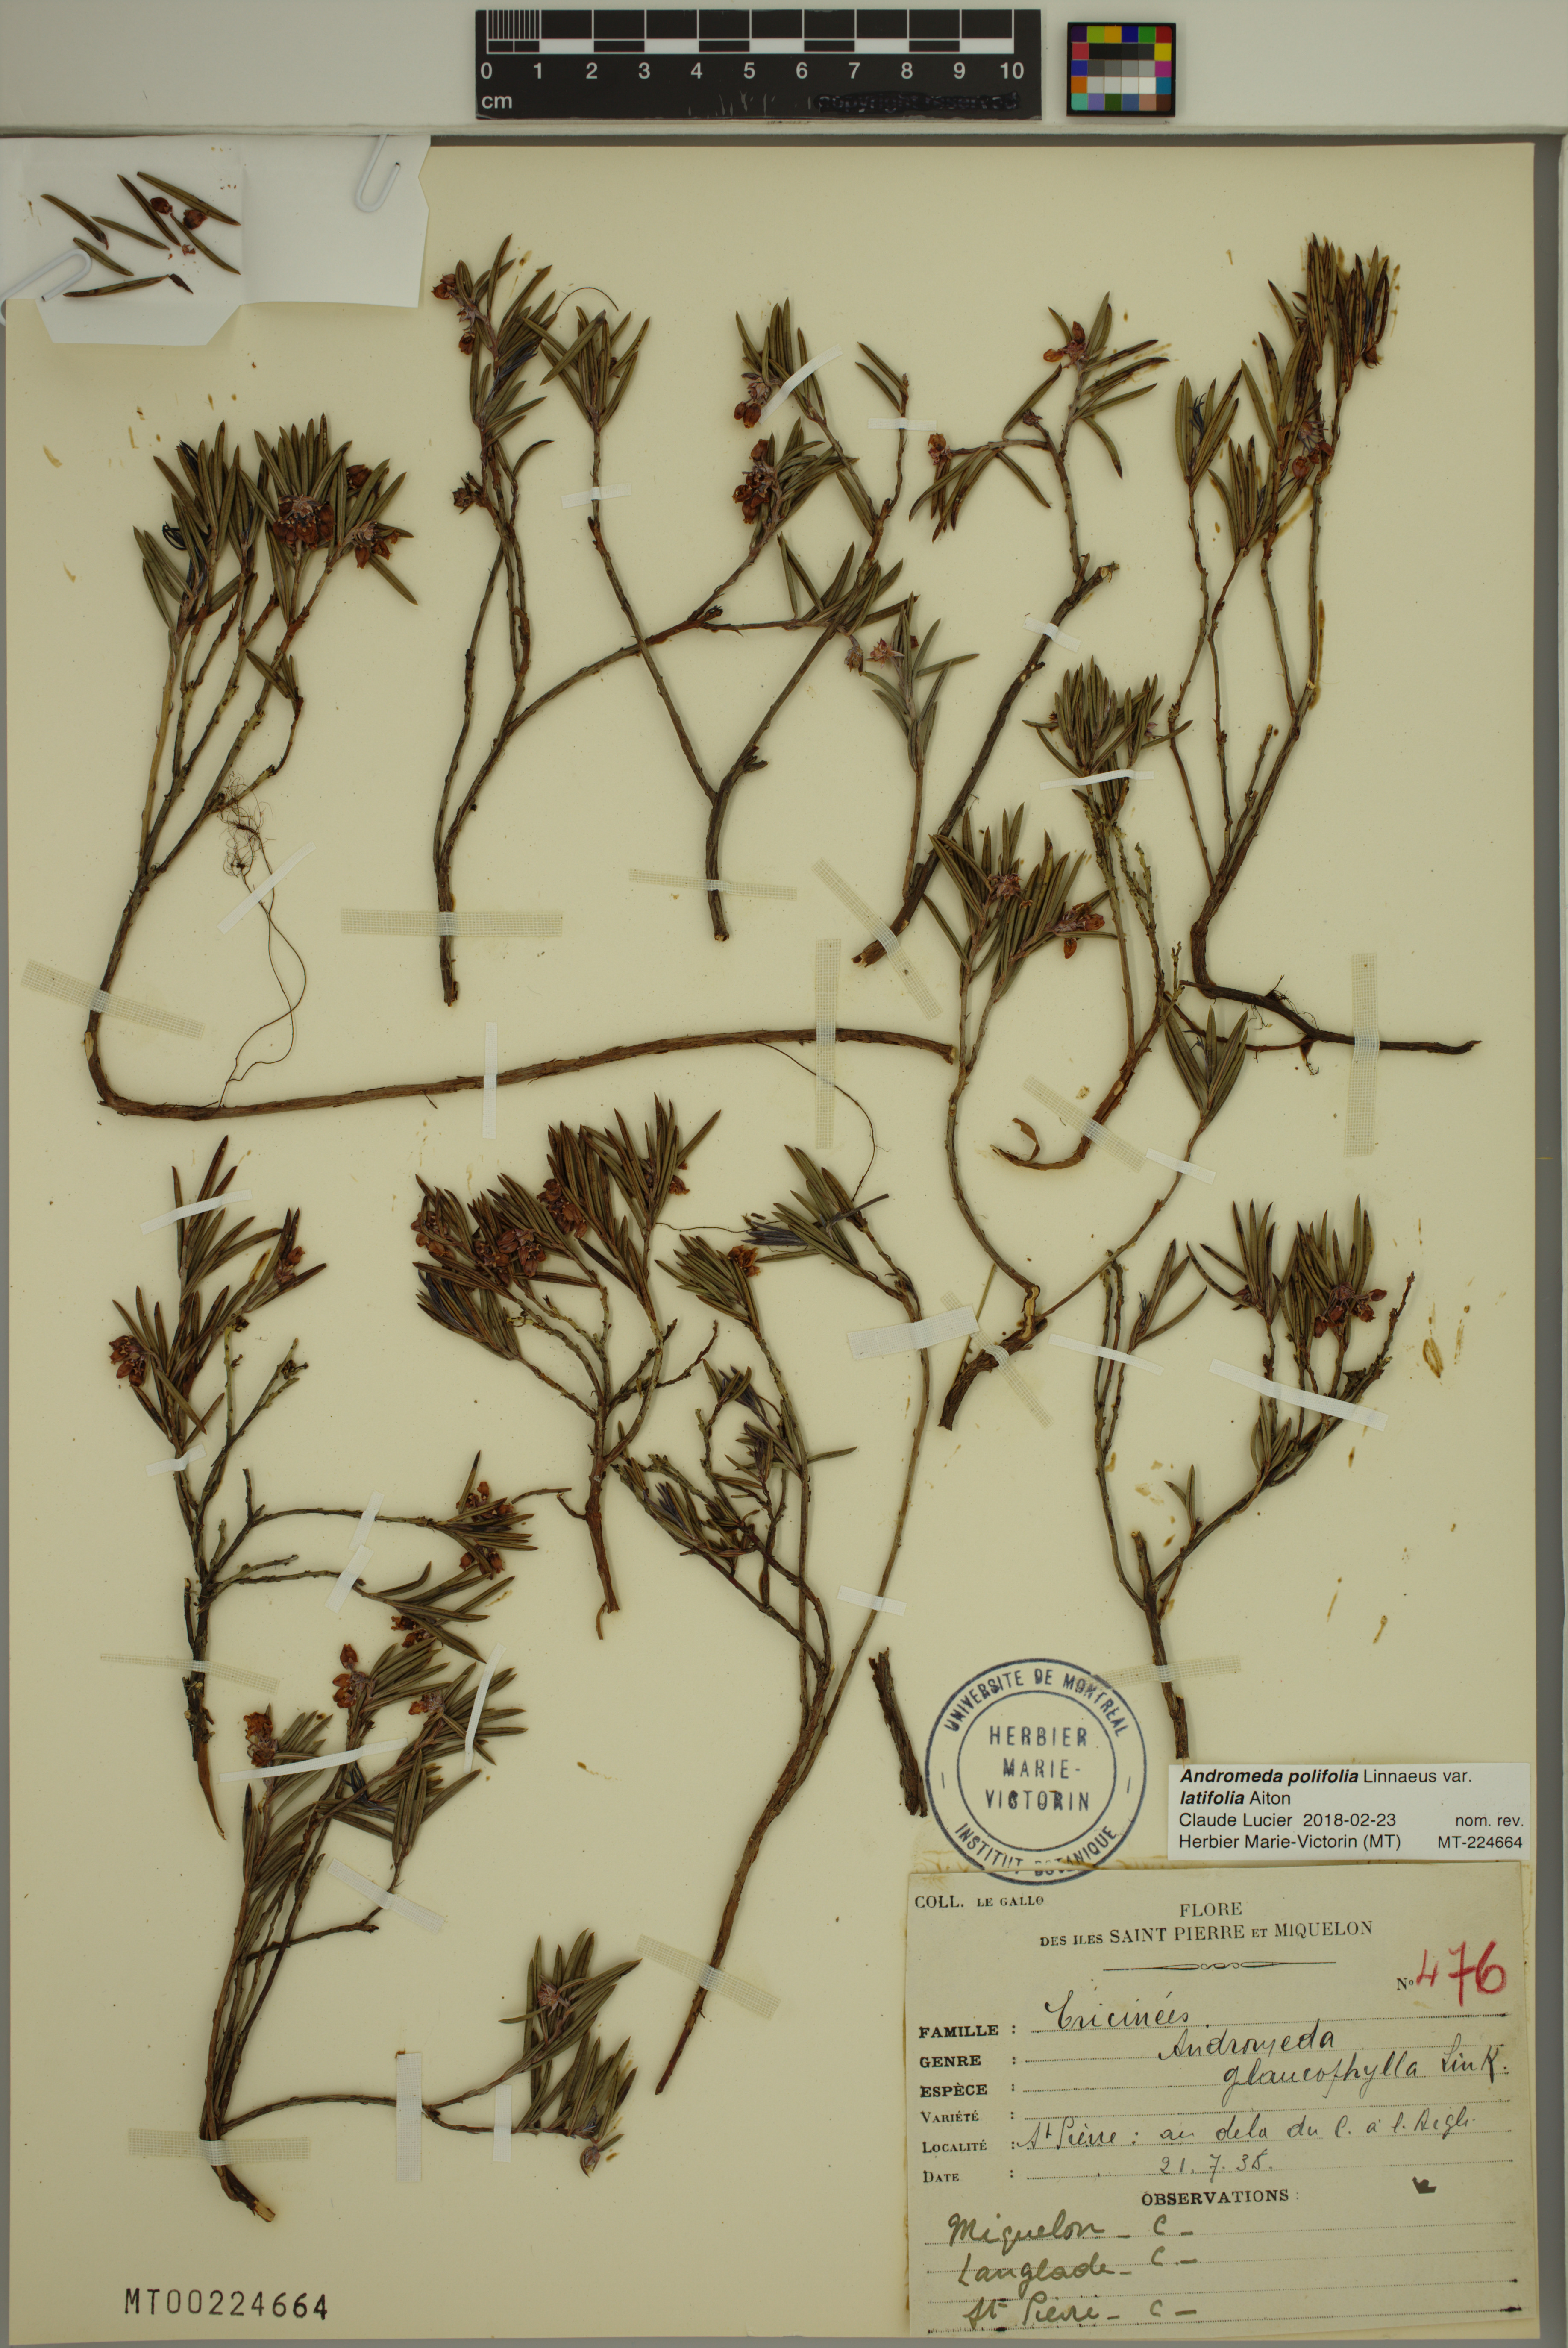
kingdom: Plantae
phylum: Tracheophyta
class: Magnoliopsida
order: Ericales
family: Ericaceae
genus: Andromeda
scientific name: Andromeda polifolia
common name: Bog-rosemary
